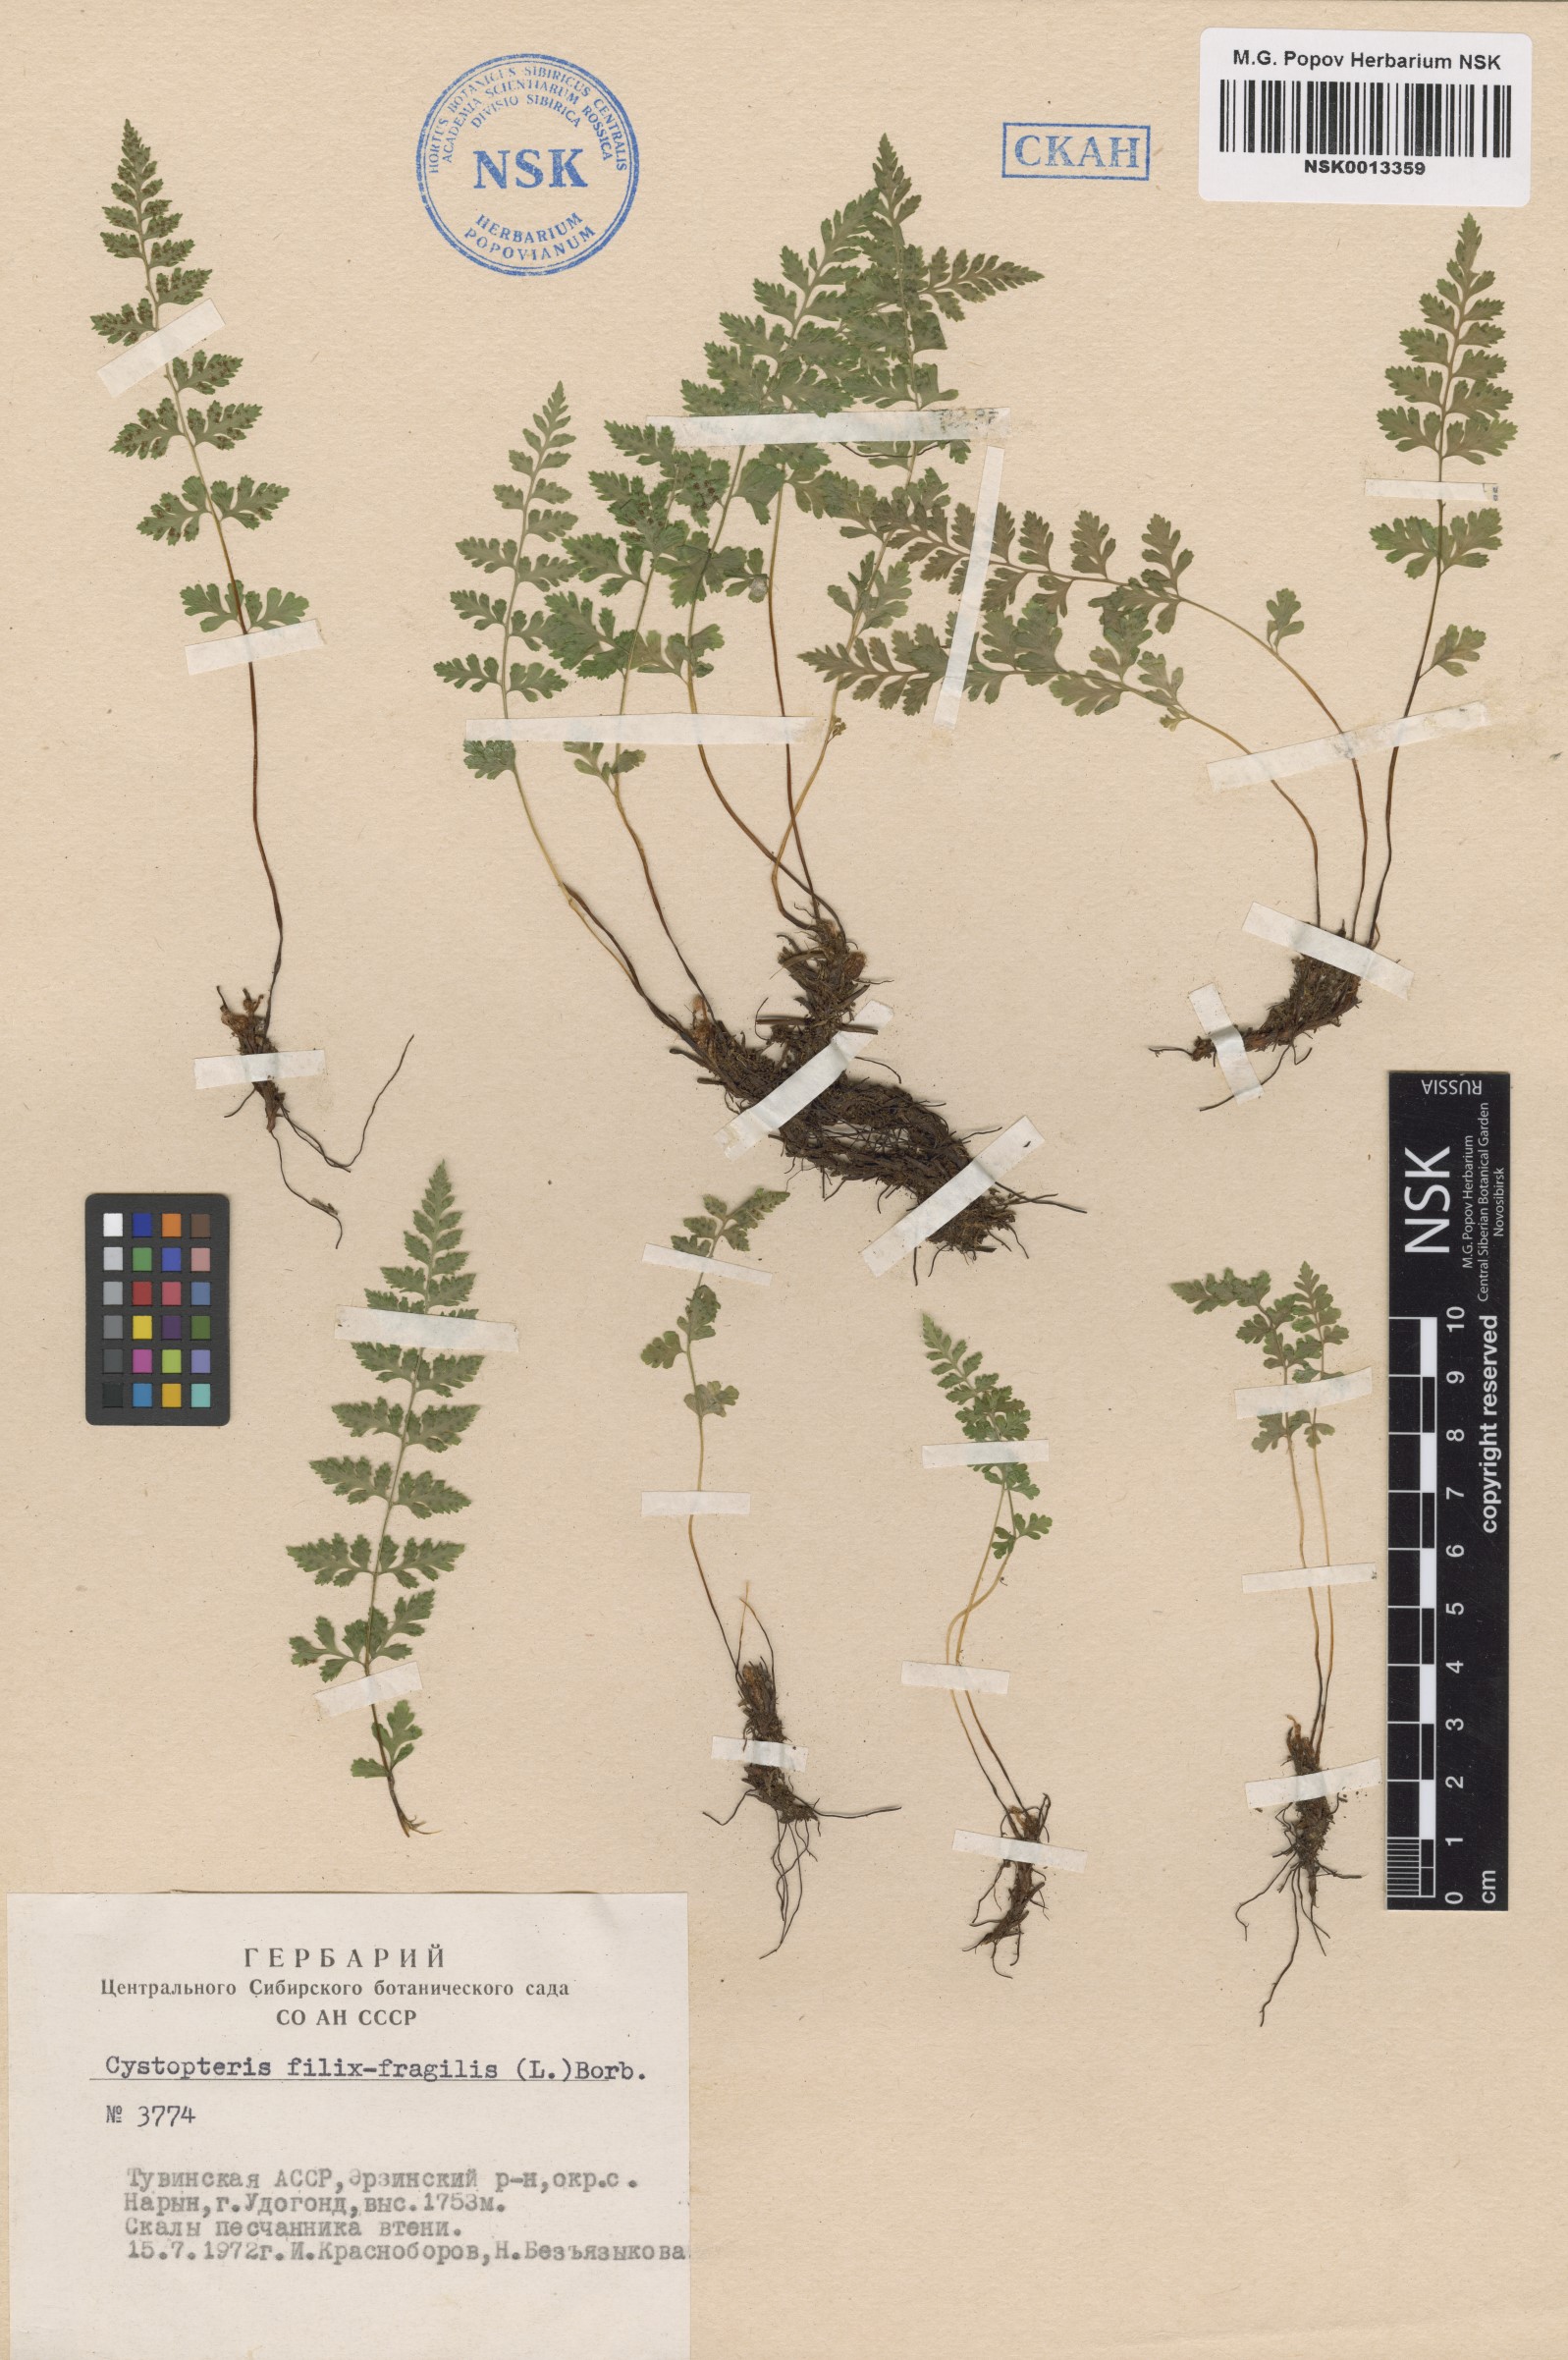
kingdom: Plantae
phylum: Tracheophyta
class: Polypodiopsida
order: Polypodiales
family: Cystopteridaceae
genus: Cystopteris
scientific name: Cystopteris fragilis
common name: Brittle bladder fern
